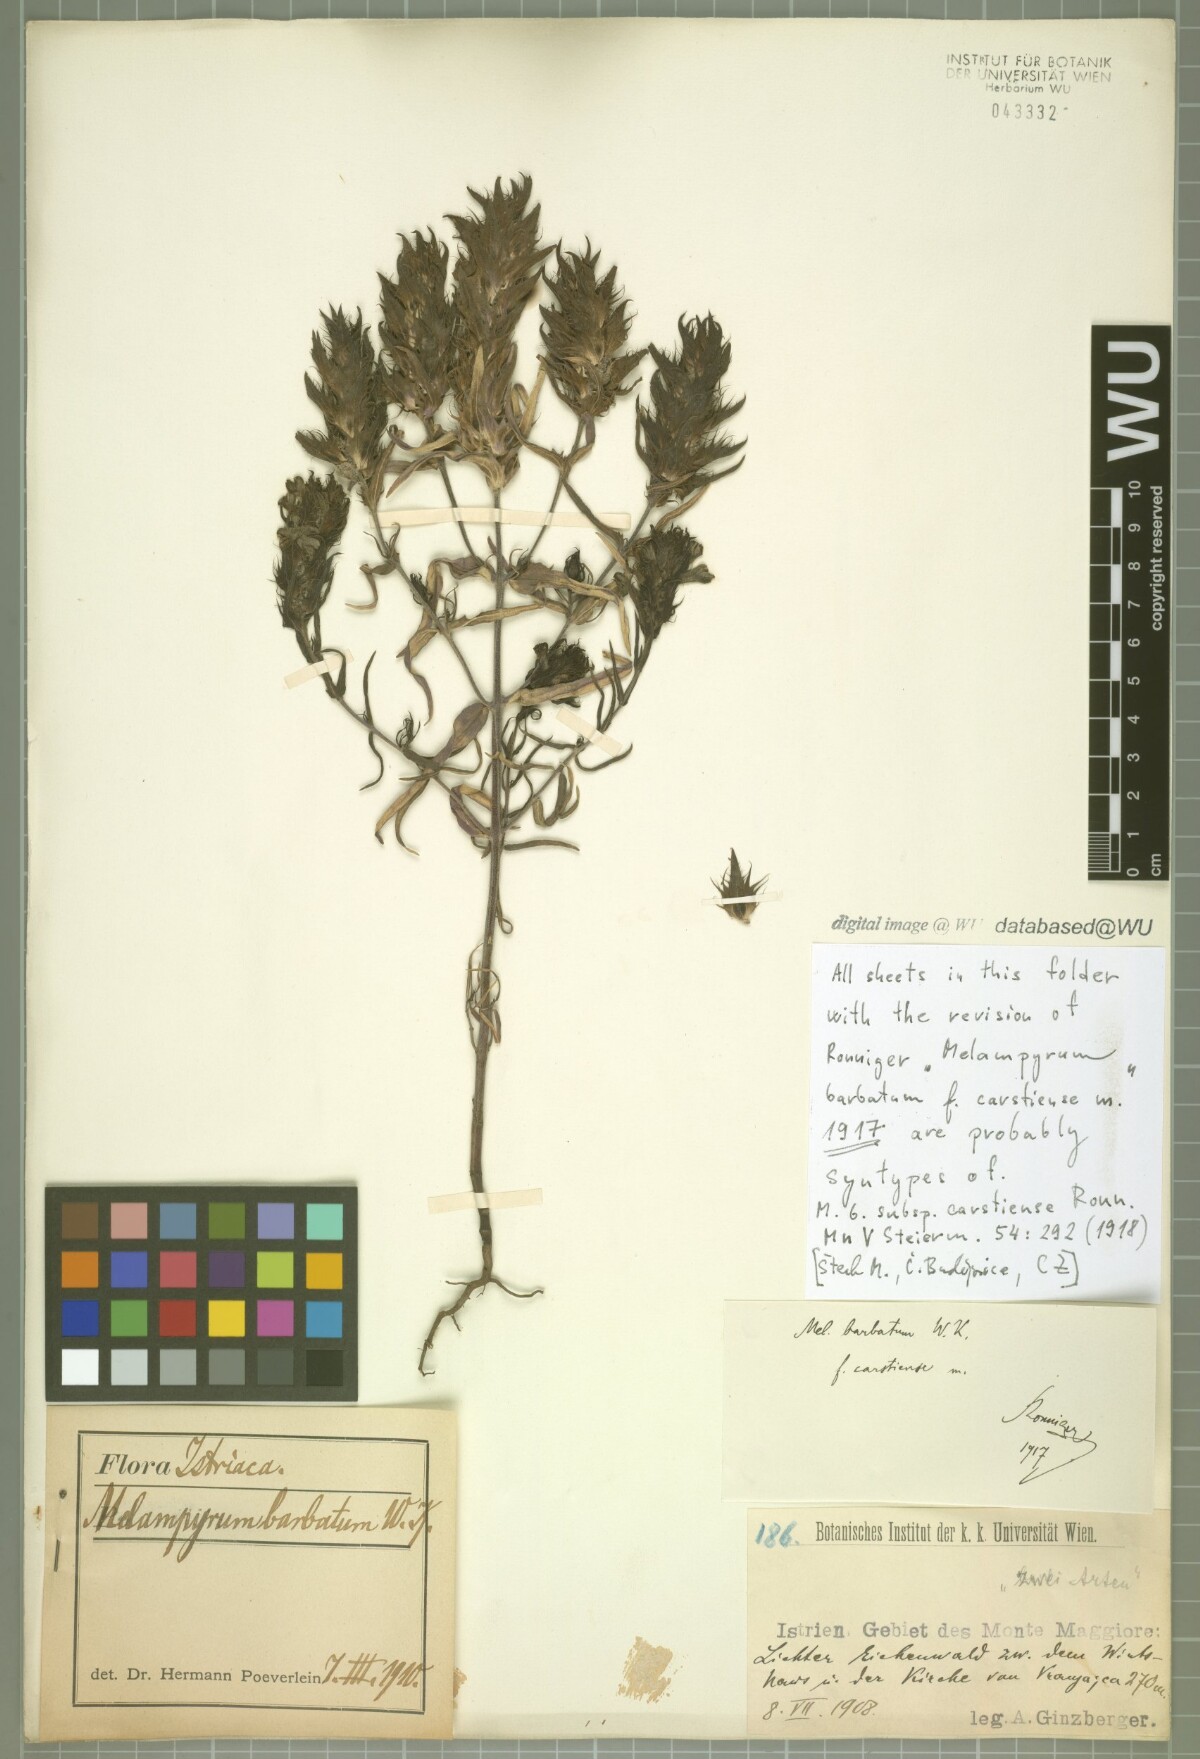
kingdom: Plantae
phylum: Tracheophyta
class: Magnoliopsida
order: Lamiales
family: Orobanchaceae
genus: Melampyrum
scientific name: Melampyrum barbatum
